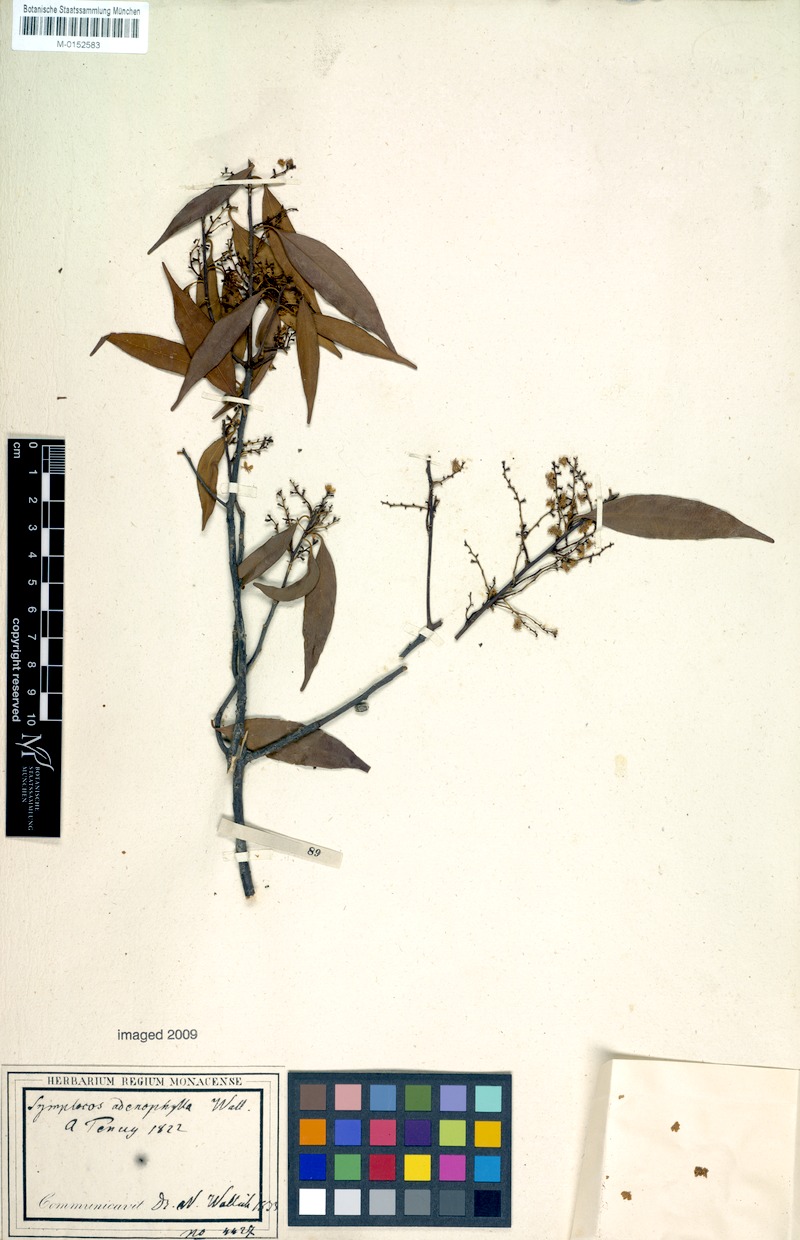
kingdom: Plantae
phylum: Tracheophyta
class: Magnoliopsida
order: Ericales
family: Symplocaceae
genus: Symplocos
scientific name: Symplocos adenophylla
